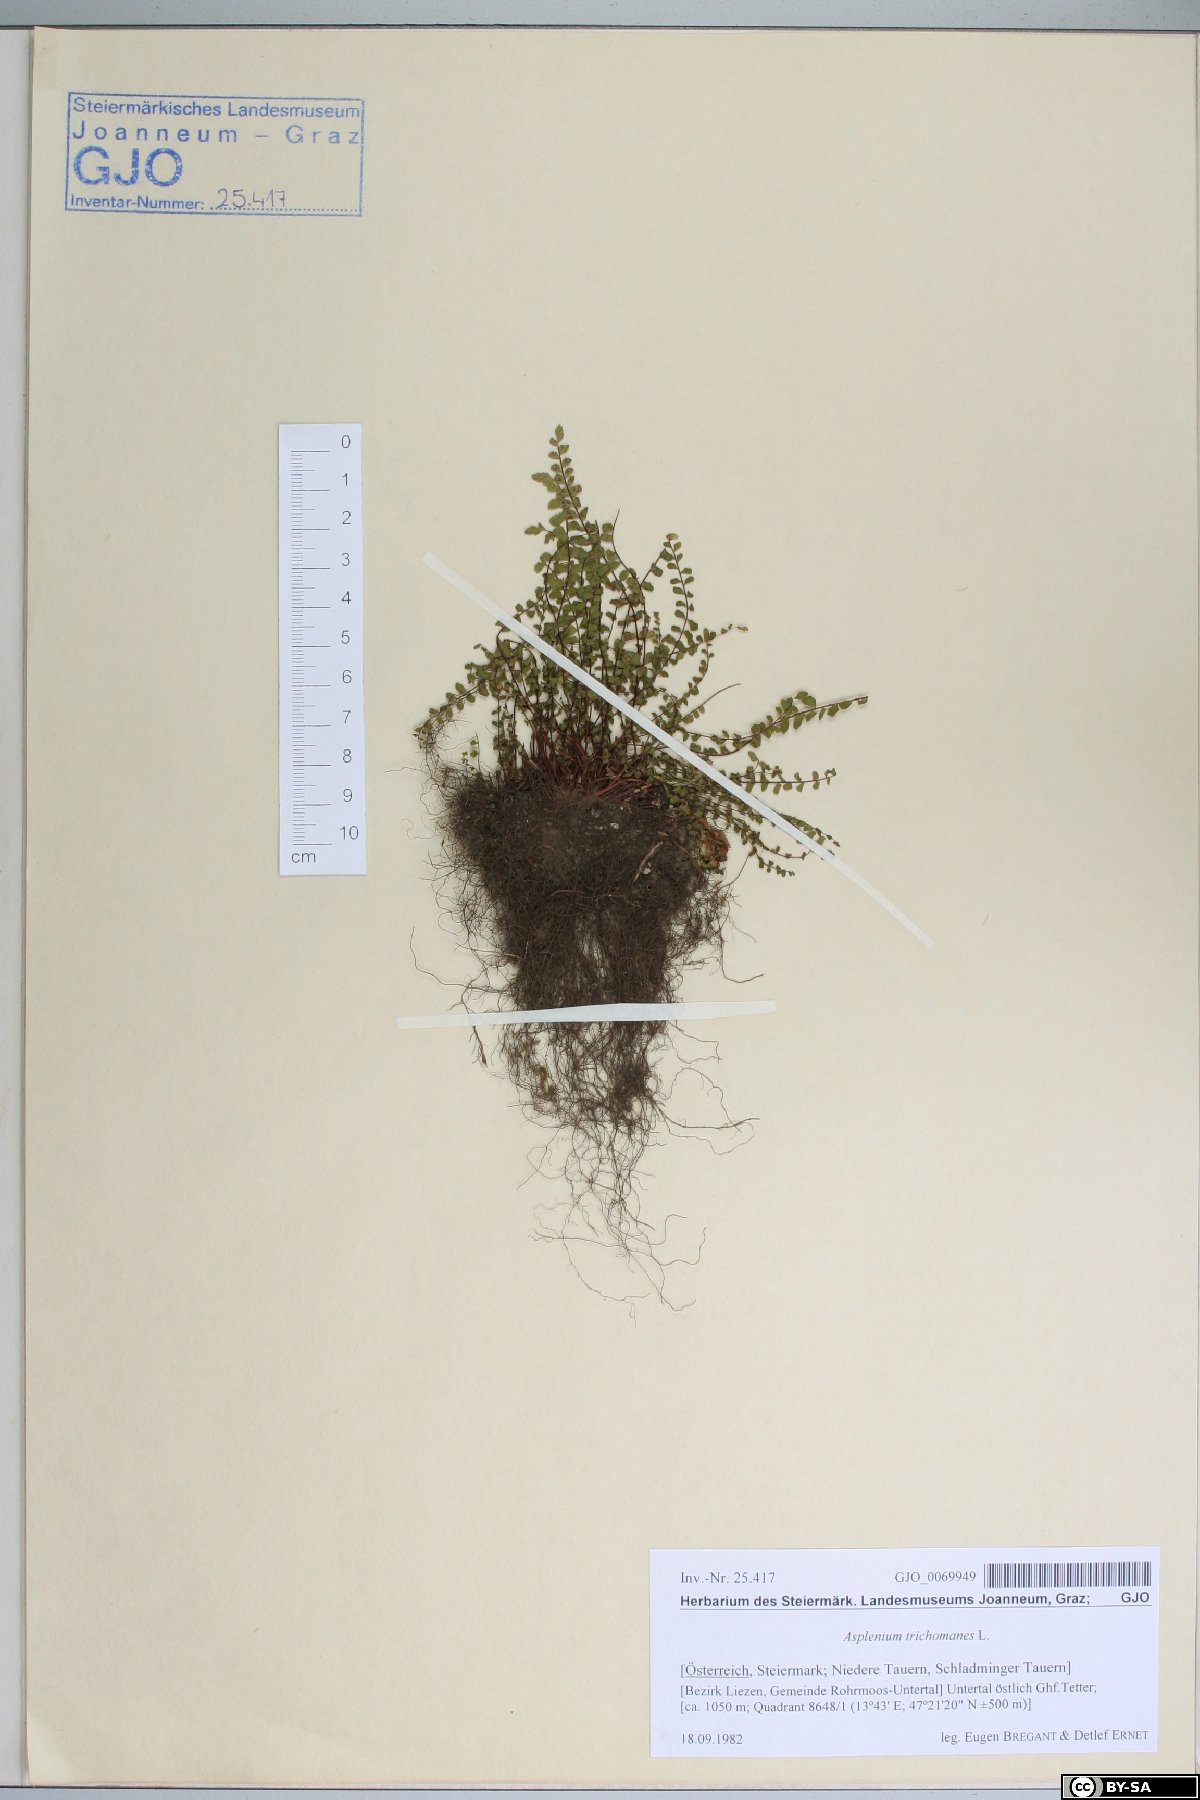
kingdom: Plantae
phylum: Tracheophyta
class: Polypodiopsida
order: Polypodiales
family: Aspleniaceae
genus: Asplenium
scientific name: Asplenium trichomanes
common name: Maidenhair spleenwort
